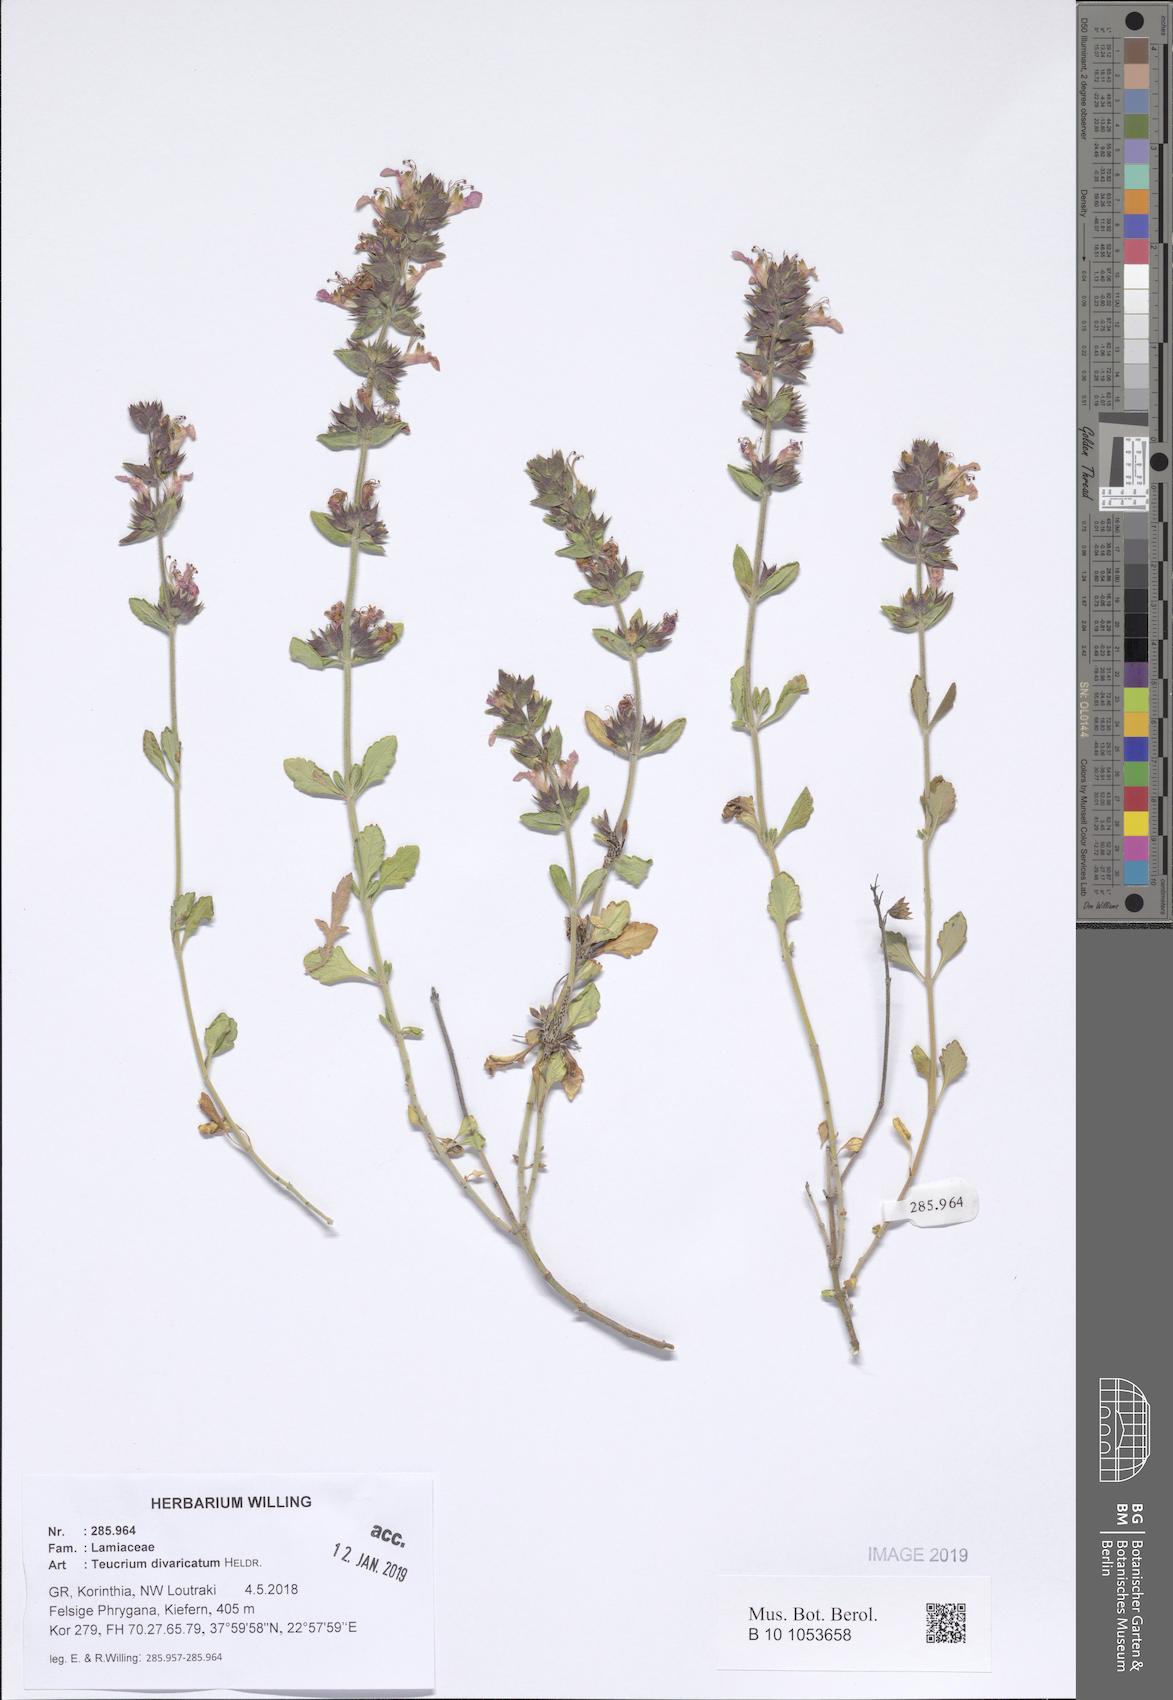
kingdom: Plantae
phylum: Tracheophyta
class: Magnoliopsida
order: Lamiales
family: Lamiaceae
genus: Teucrium
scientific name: Teucrium divaricatum
